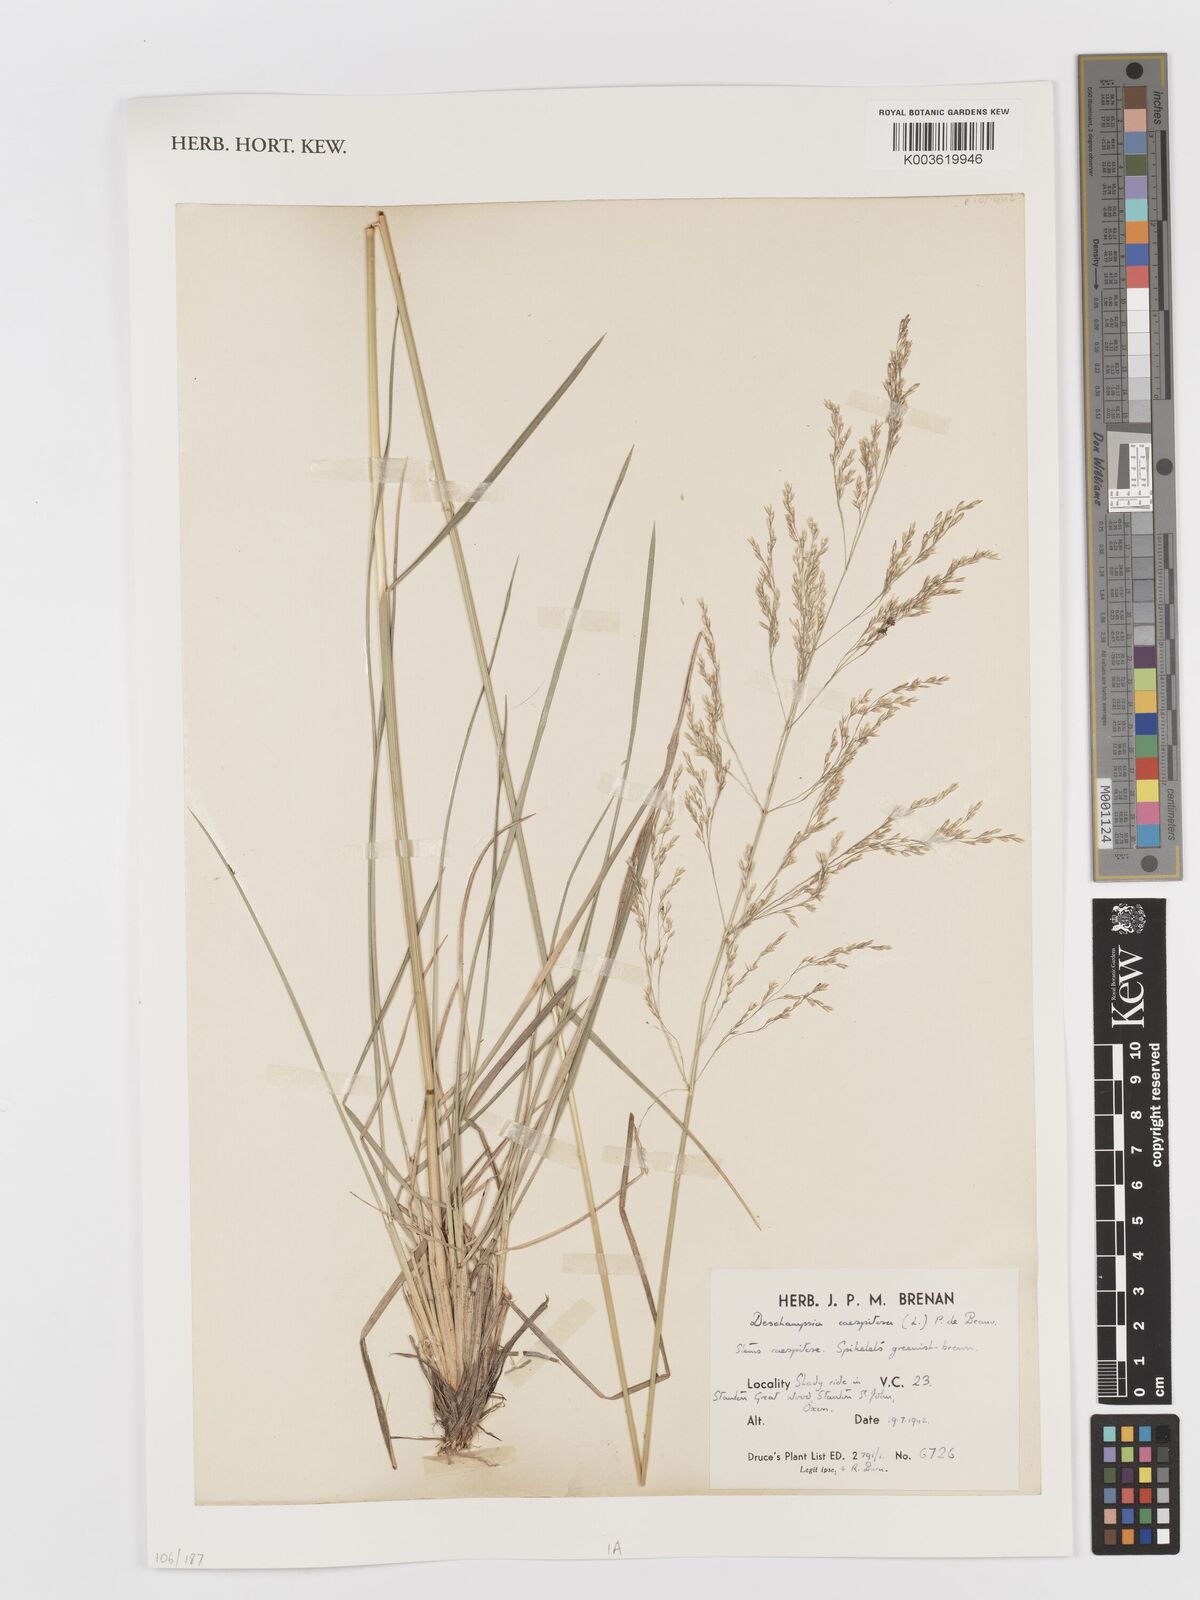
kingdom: Plantae
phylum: Tracheophyta
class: Liliopsida
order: Poales
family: Poaceae
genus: Deschampsia
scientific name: Deschampsia
